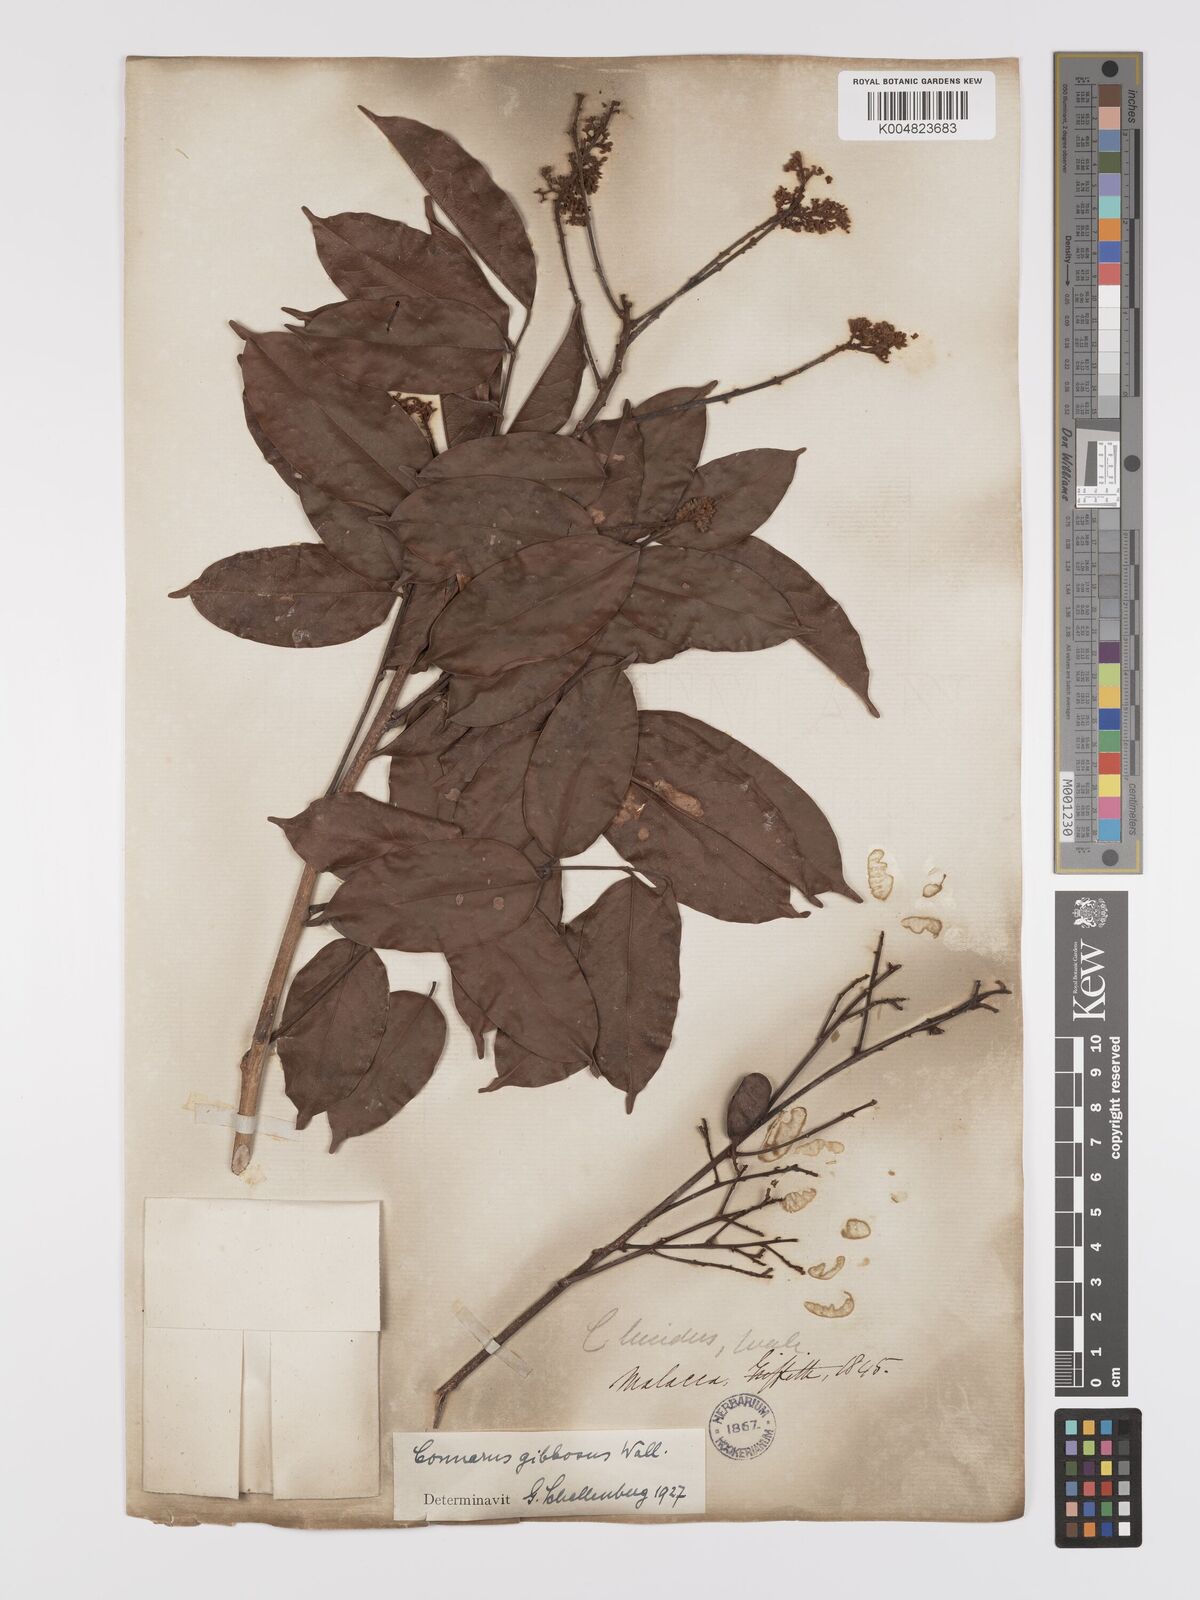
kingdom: Plantae
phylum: Tracheophyta
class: Magnoliopsida
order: Oxalidales
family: Connaraceae
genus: Connarus
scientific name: Connarus semidecandrus
